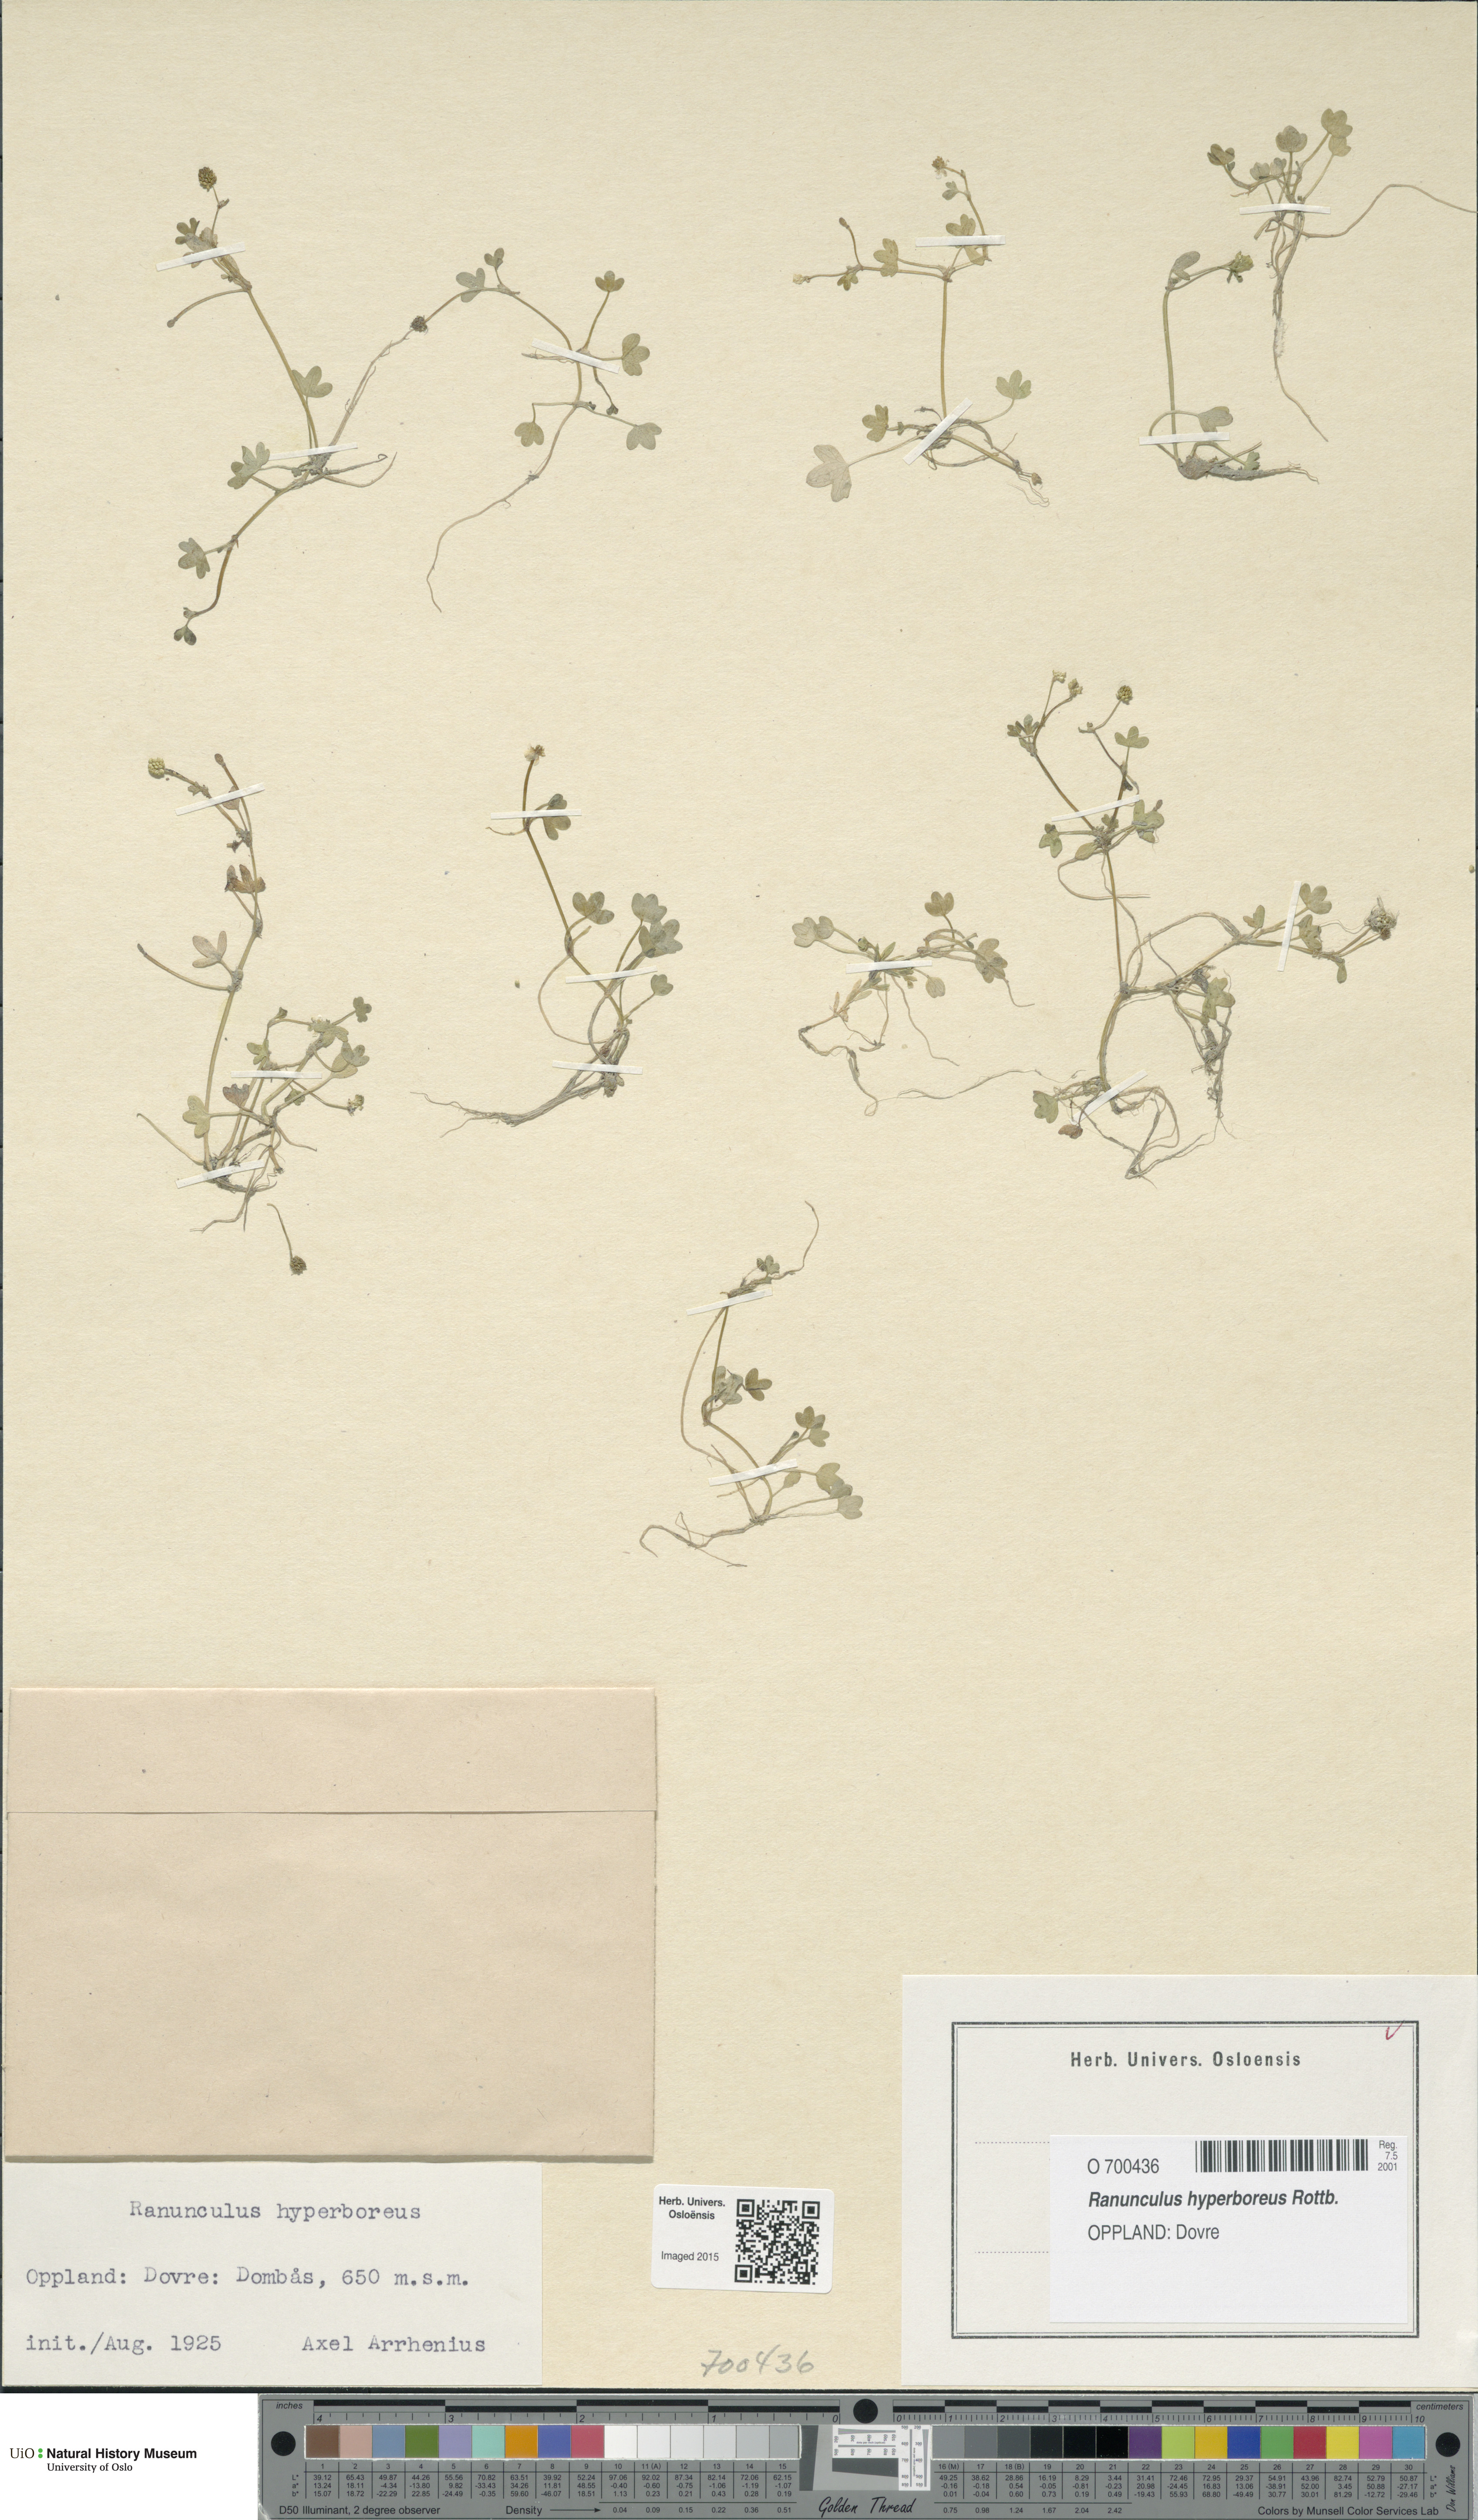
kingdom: Plantae
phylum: Tracheophyta
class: Magnoliopsida
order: Ranunculales
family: Ranunculaceae
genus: Ranunculus
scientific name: Ranunculus hyperboreus
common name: Arctic buttercup
